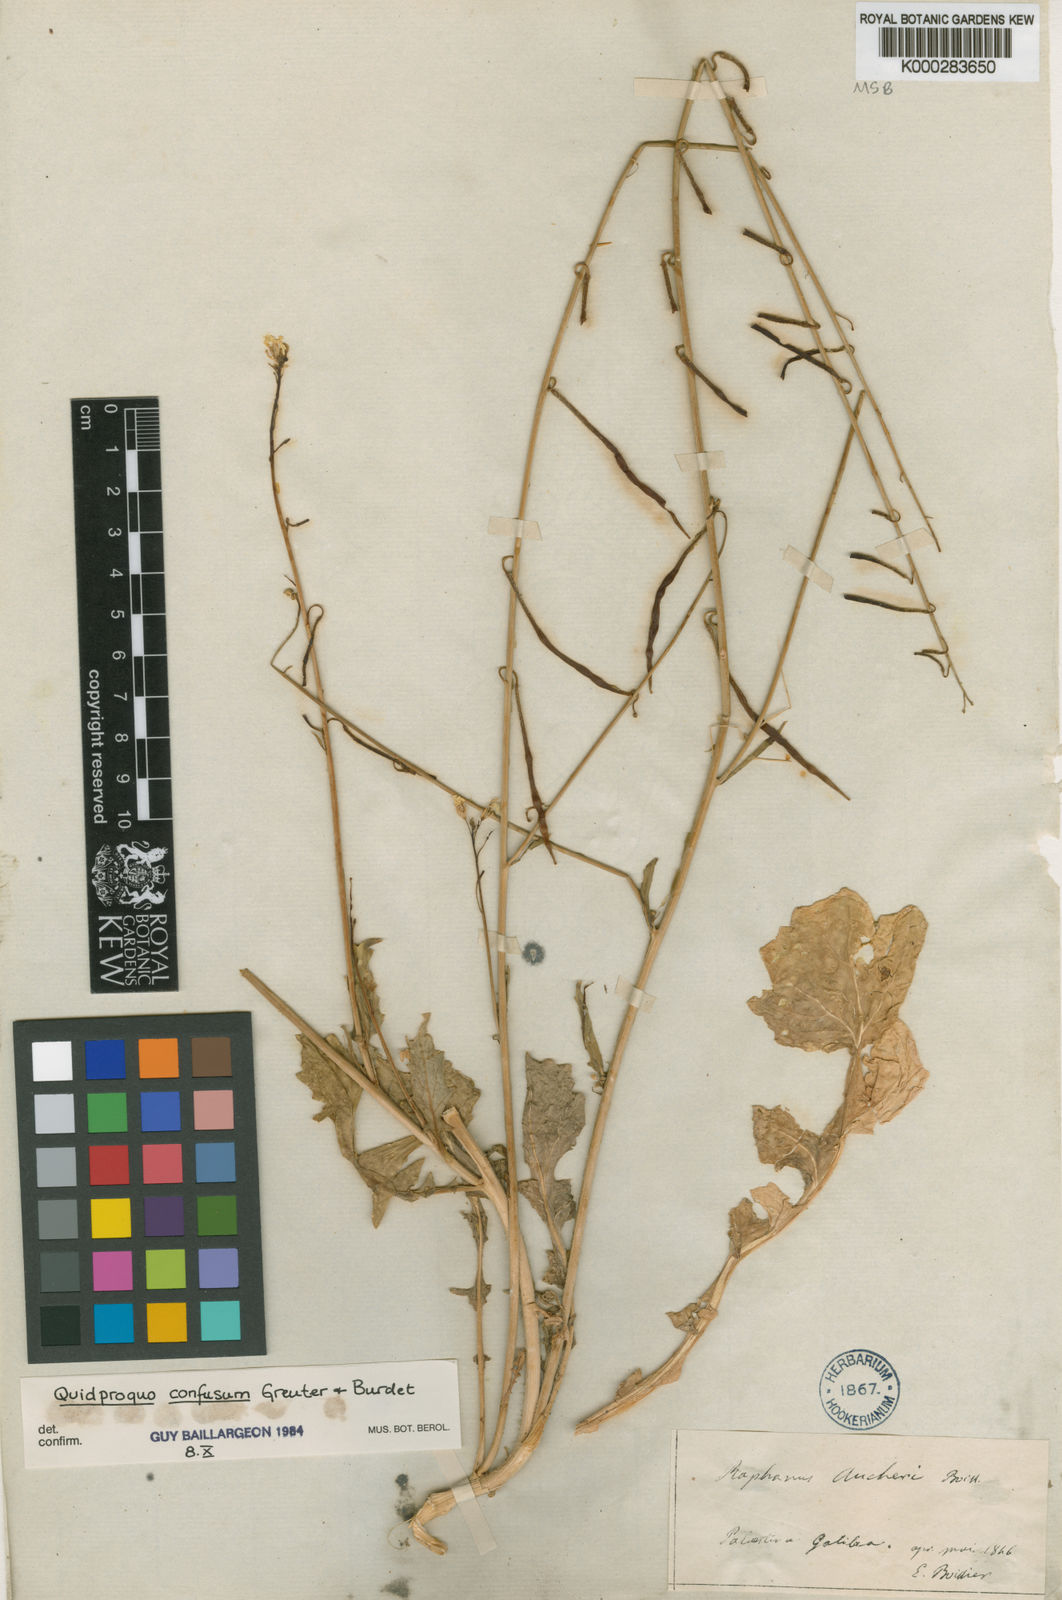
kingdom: Plantae
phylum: Tracheophyta
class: Magnoliopsida
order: Brassicales
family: Brassicaceae
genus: Raphanus
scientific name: Raphanus confusus
